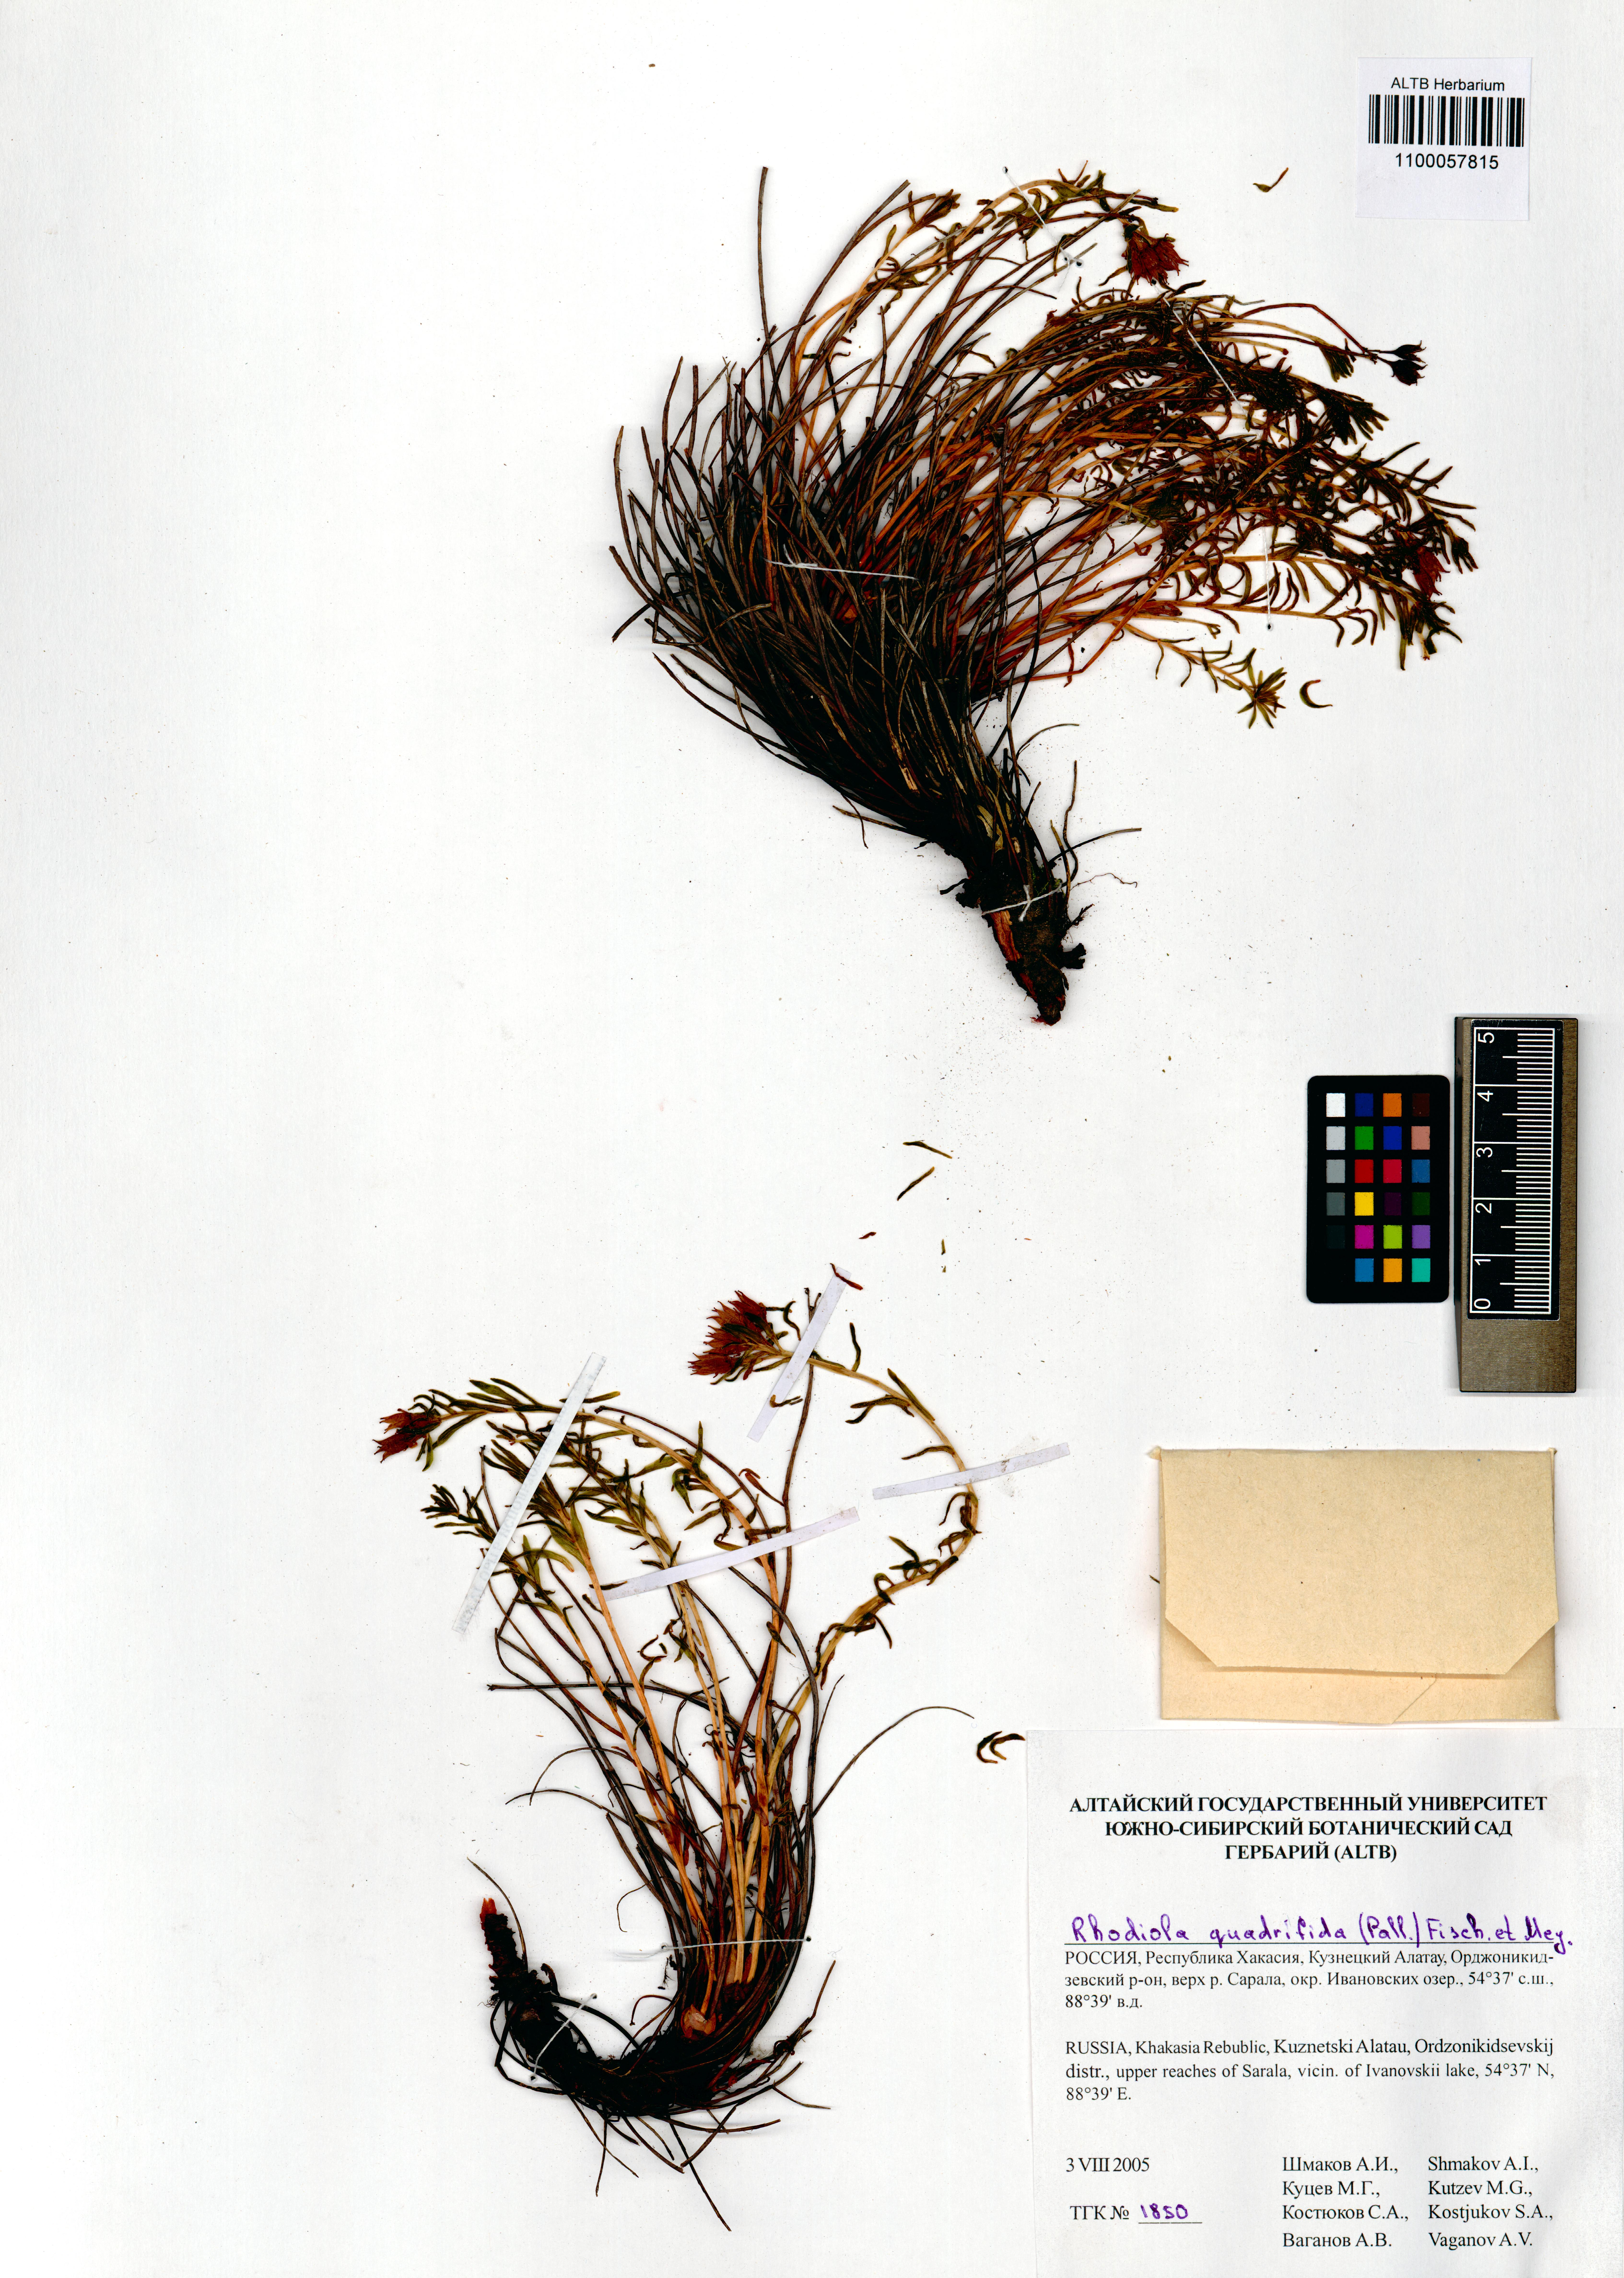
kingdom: Plantae
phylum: Tracheophyta
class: Magnoliopsida
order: Saxifragales
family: Crassulaceae
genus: Rhodiola
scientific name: Rhodiola quadrifida
